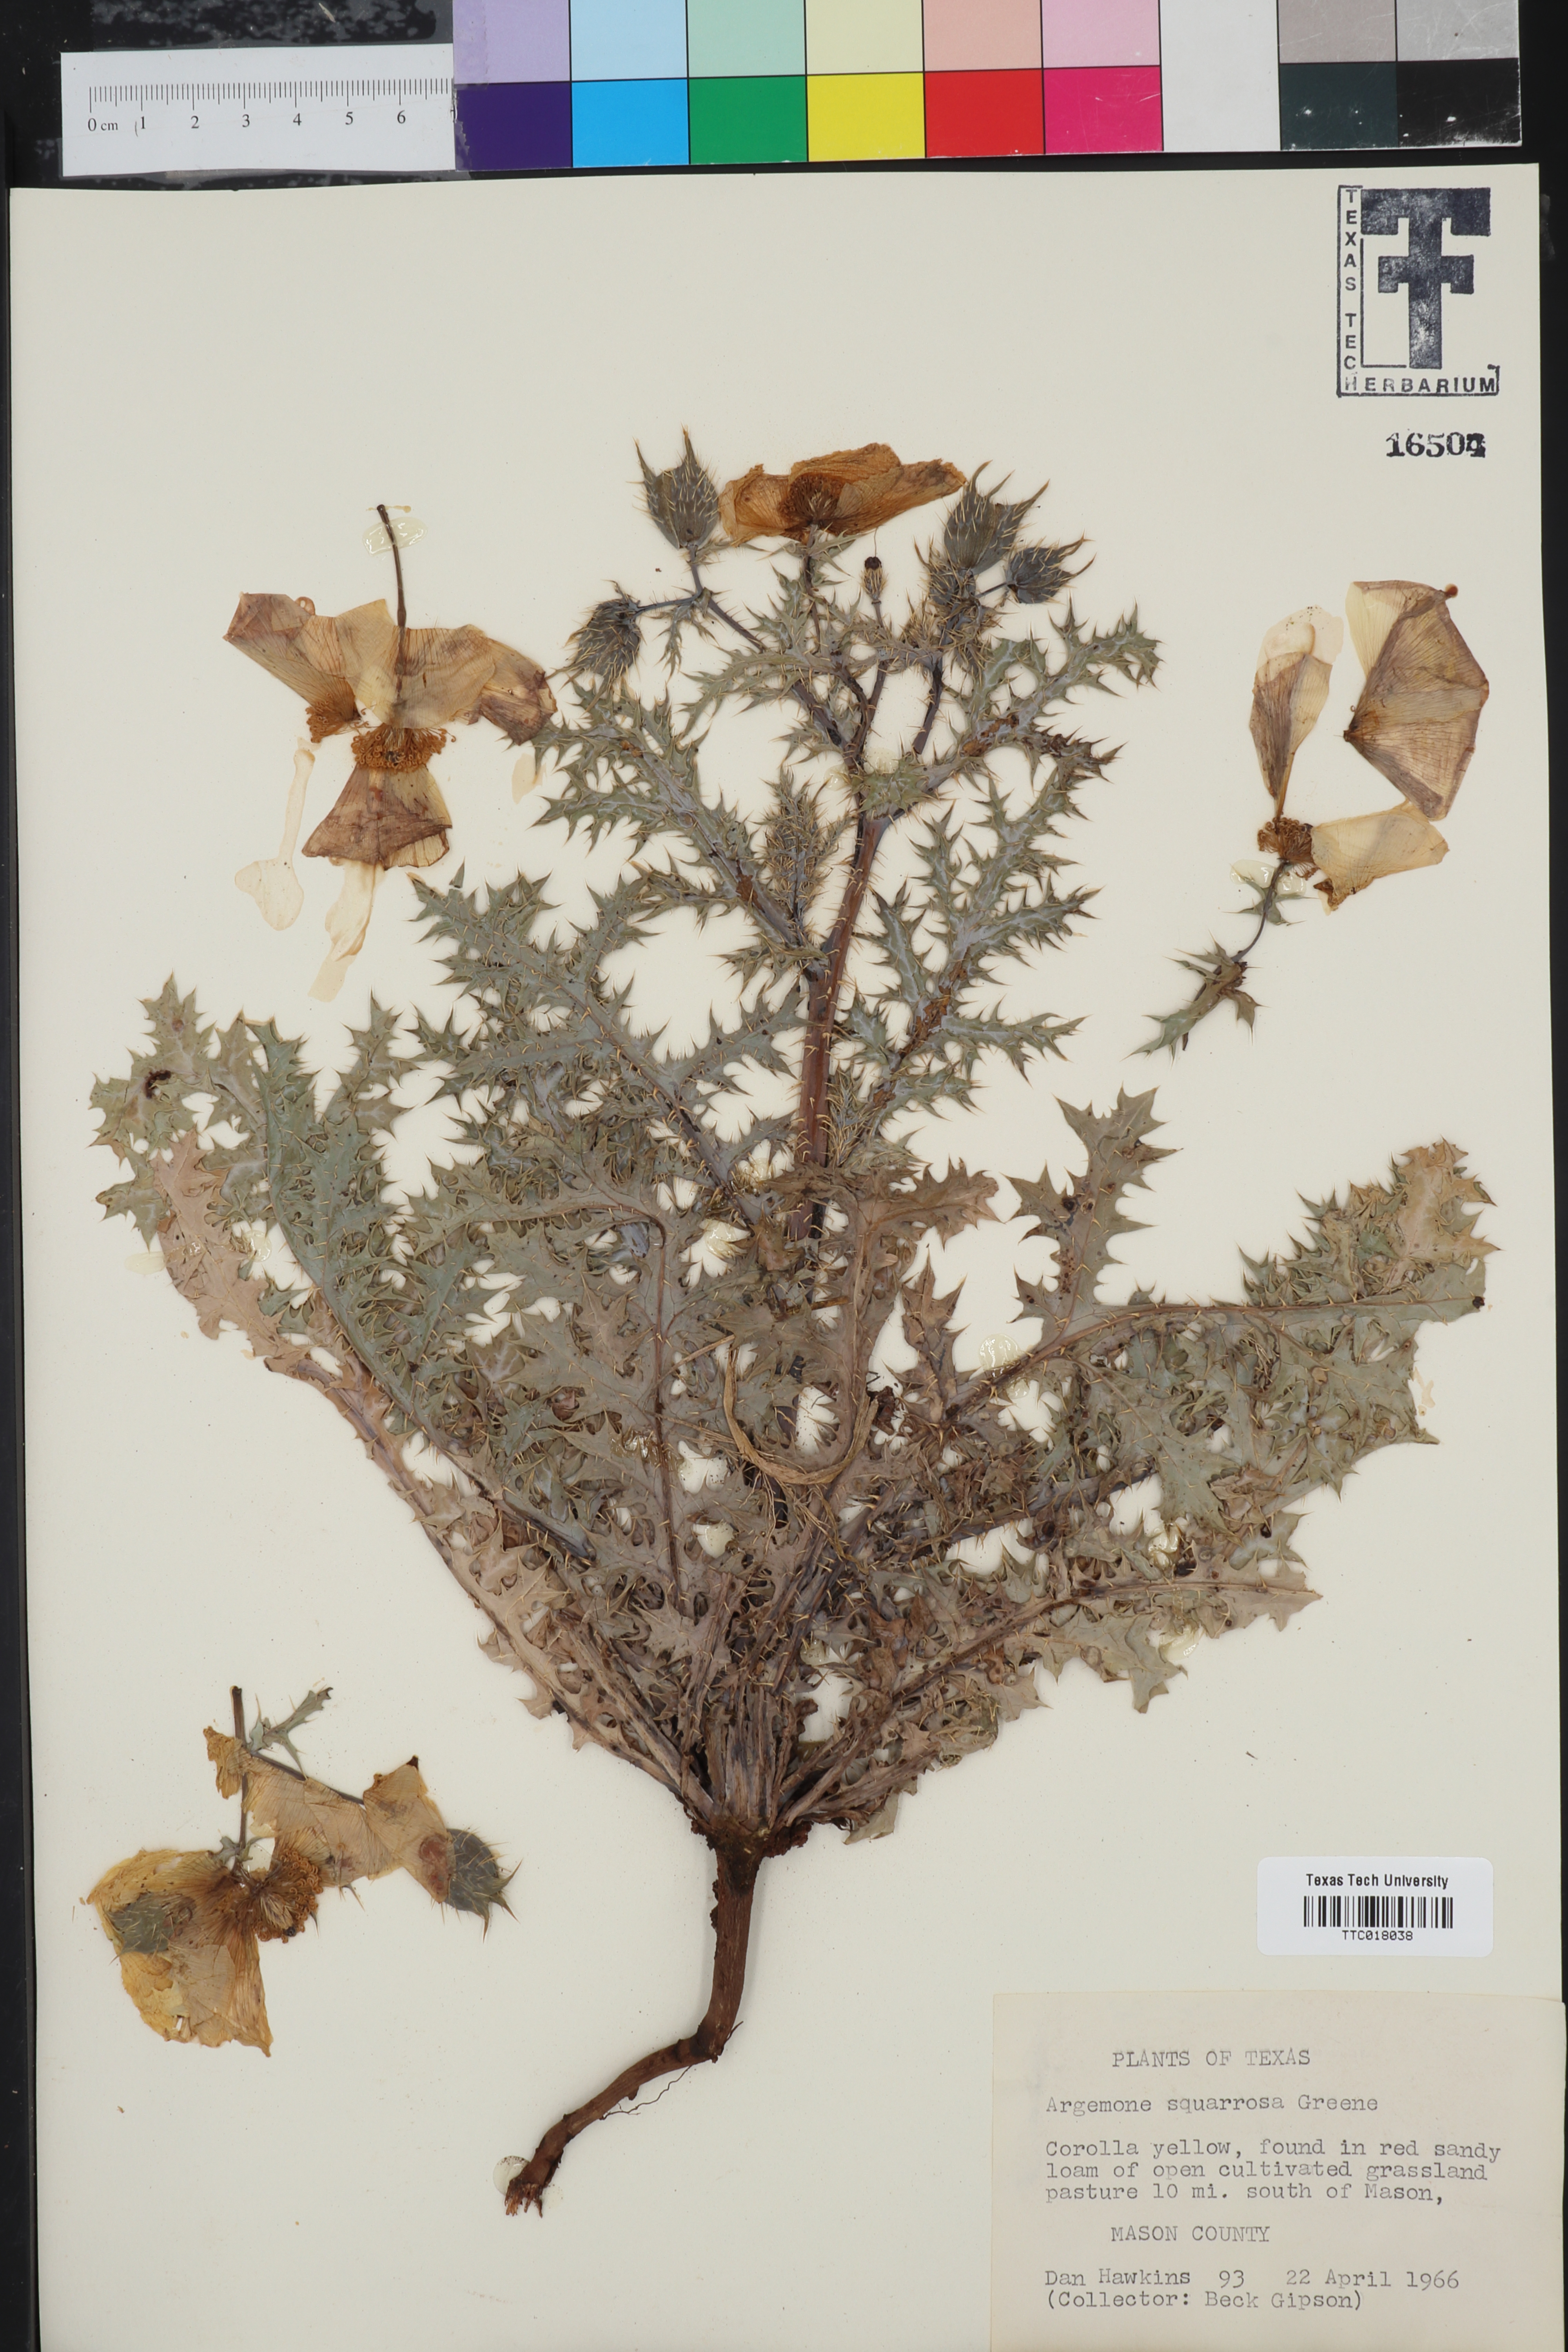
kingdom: Plantae
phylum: Tracheophyta
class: Magnoliopsida
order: Ranunculales
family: Papaveraceae
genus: Argemone
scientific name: Argemone squarrosa
